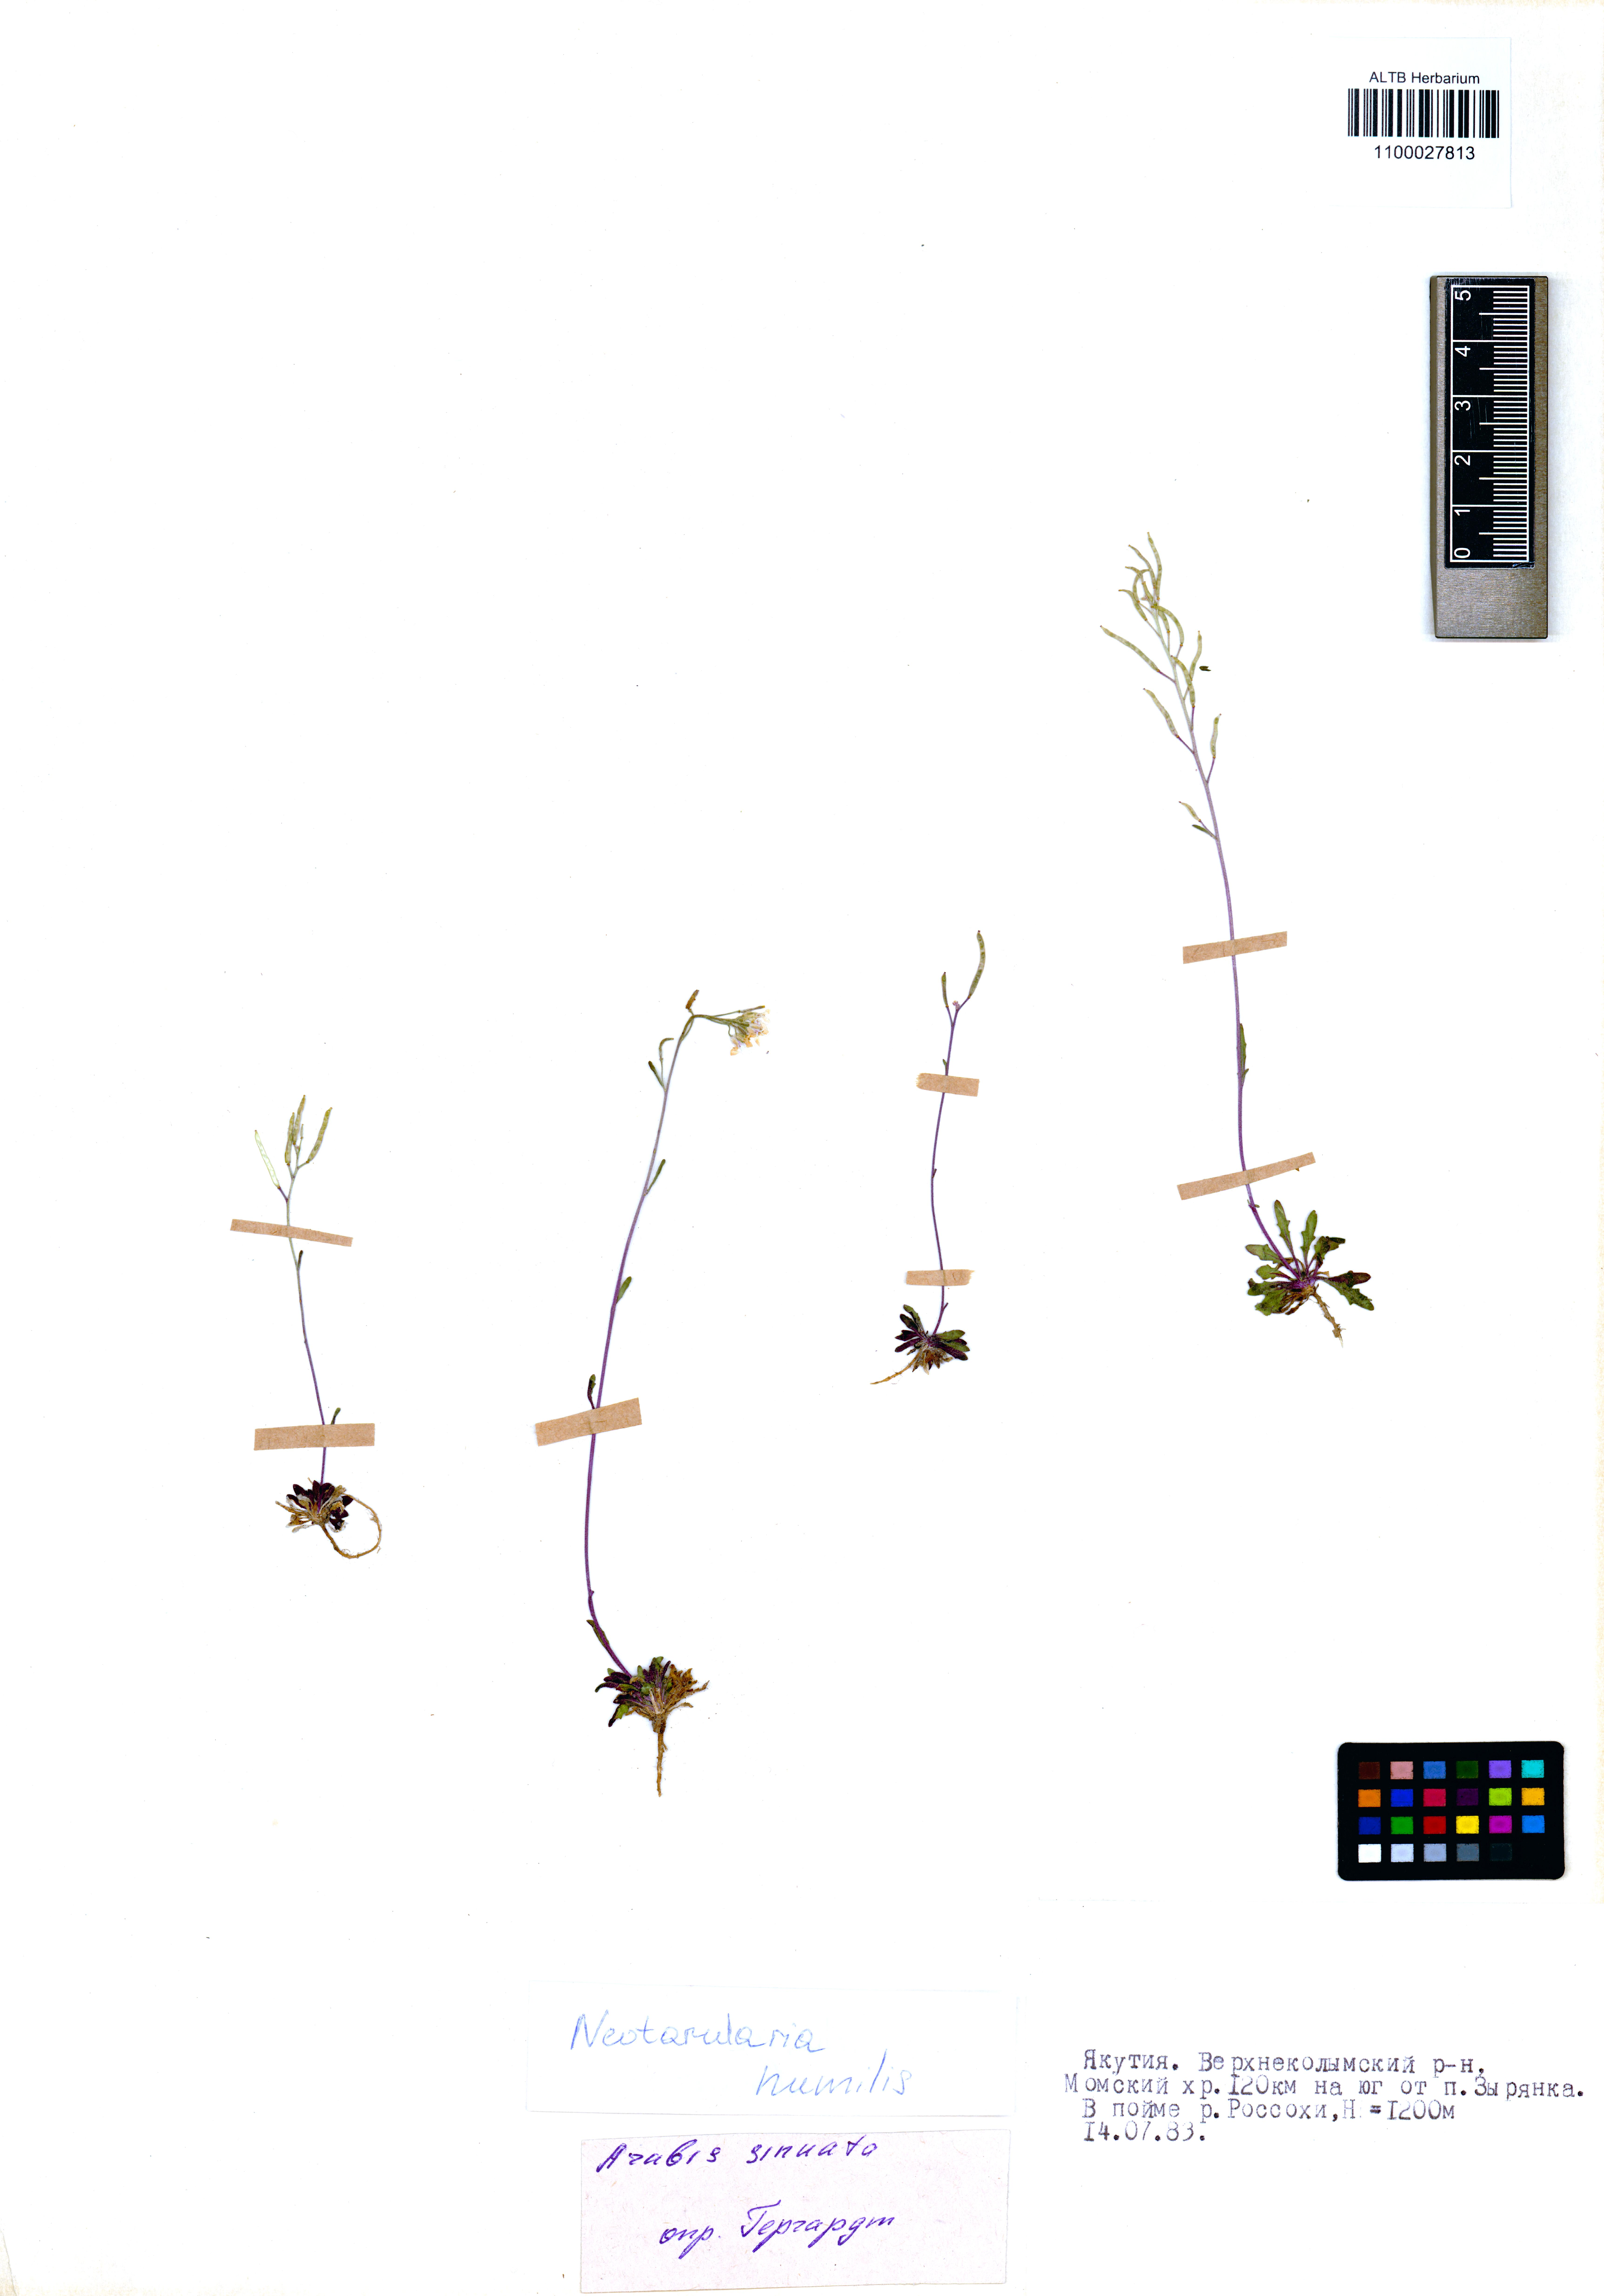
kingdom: Plantae
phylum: Tracheophyta
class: Magnoliopsida
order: Brassicales
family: Brassicaceae
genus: Braya
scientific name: Braya humilis
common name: Alpine northern rockcress
